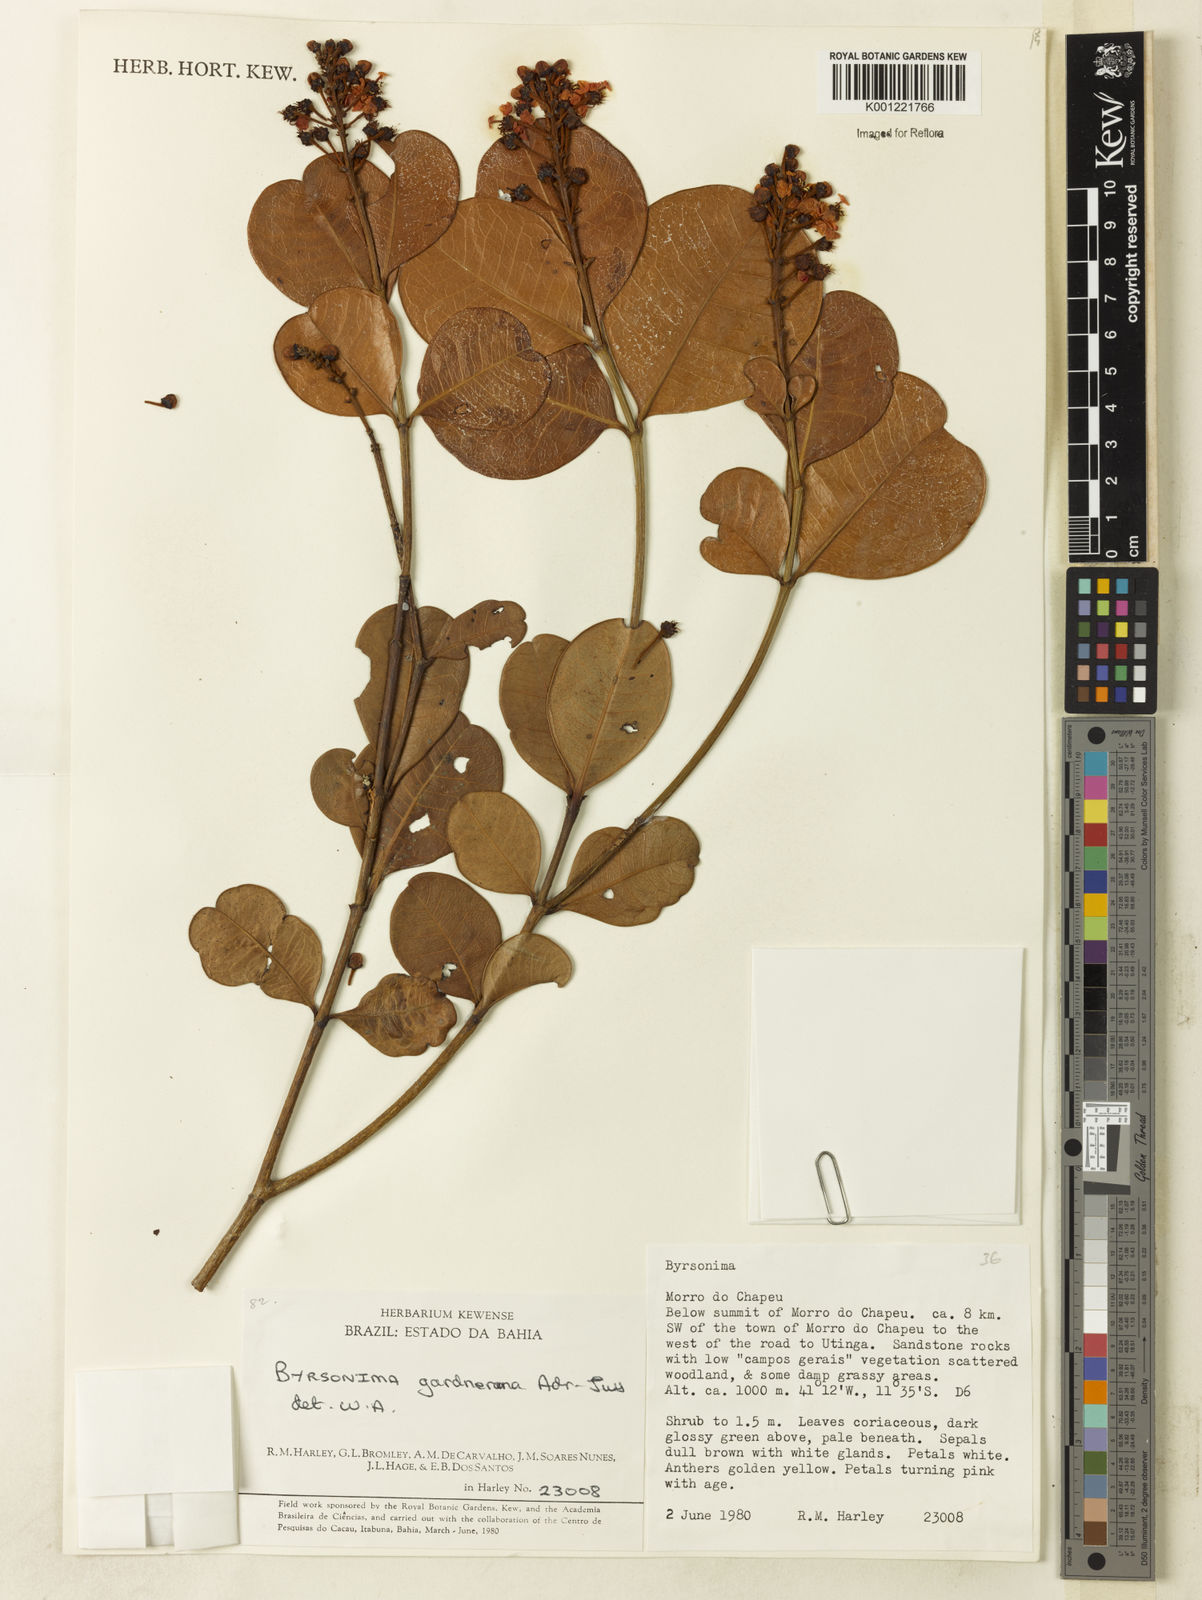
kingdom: Plantae
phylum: Tracheophyta
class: Magnoliopsida
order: Malpighiales
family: Malpighiaceae
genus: Byrsonima
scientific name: Byrsonima gardneriana
